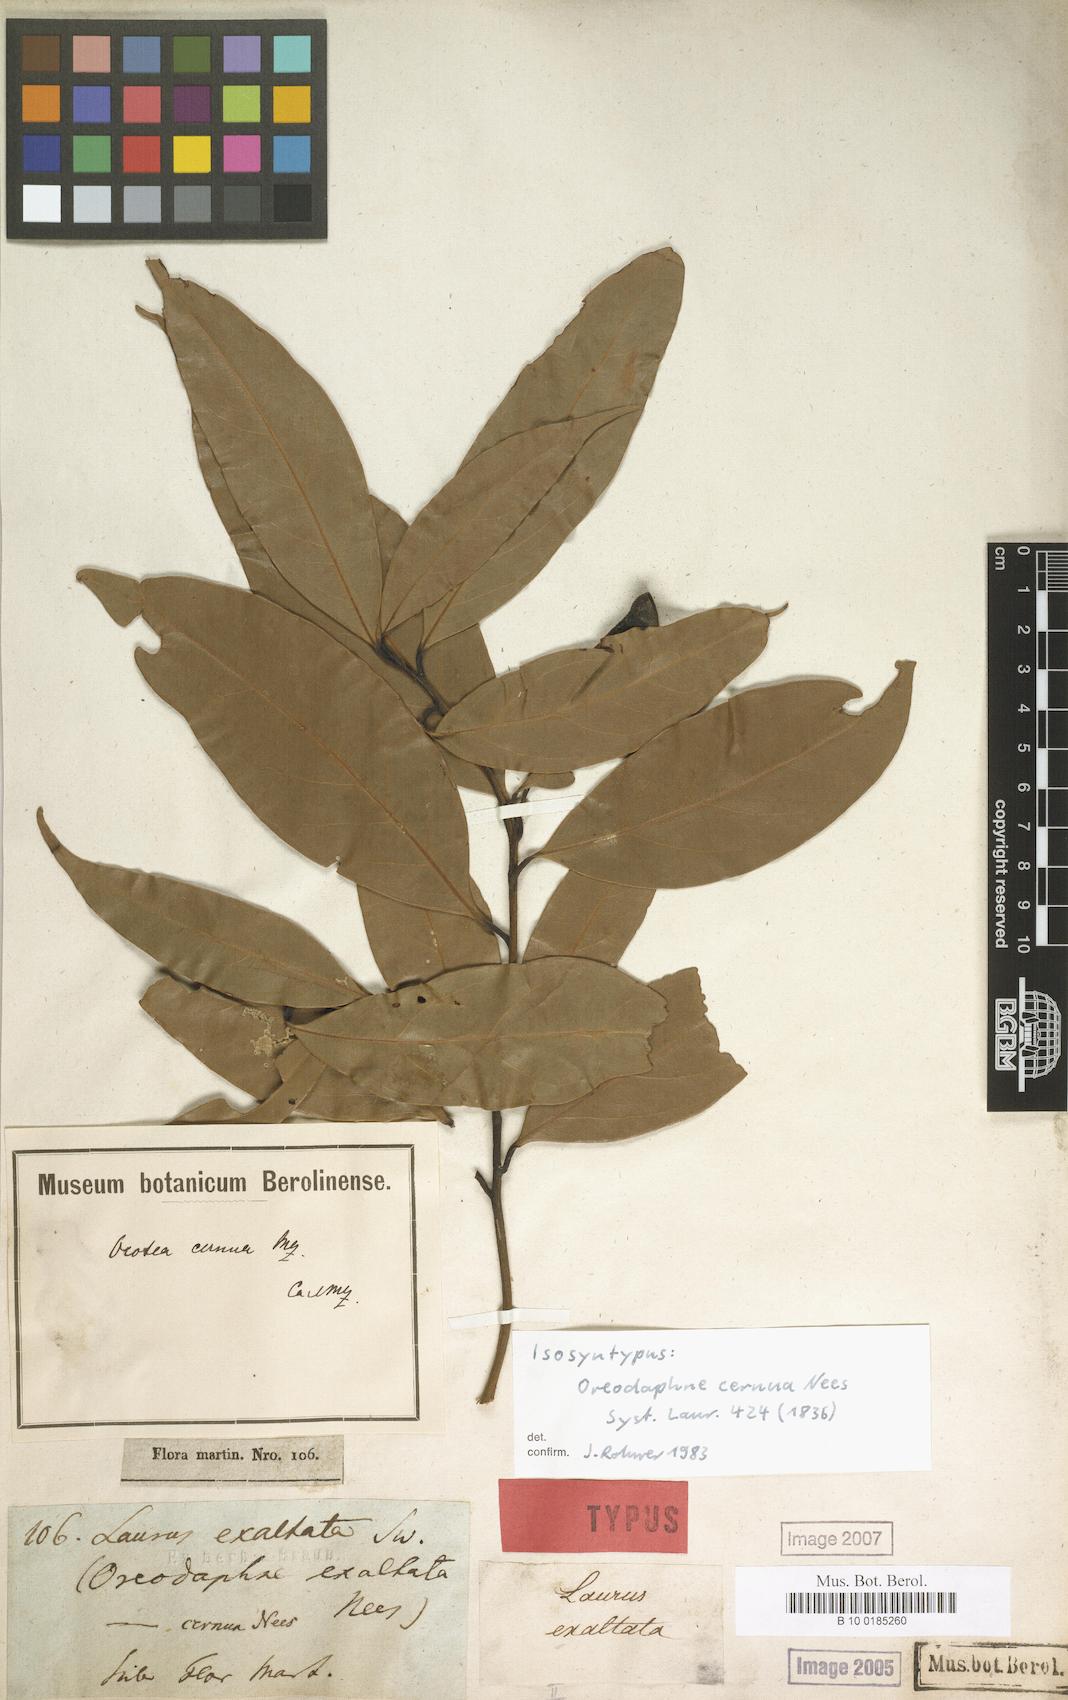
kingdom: Plantae
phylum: Tracheophyta
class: Magnoliopsida
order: Laurales
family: Lauraceae
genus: Ocotea
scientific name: Ocotea leptobotra
